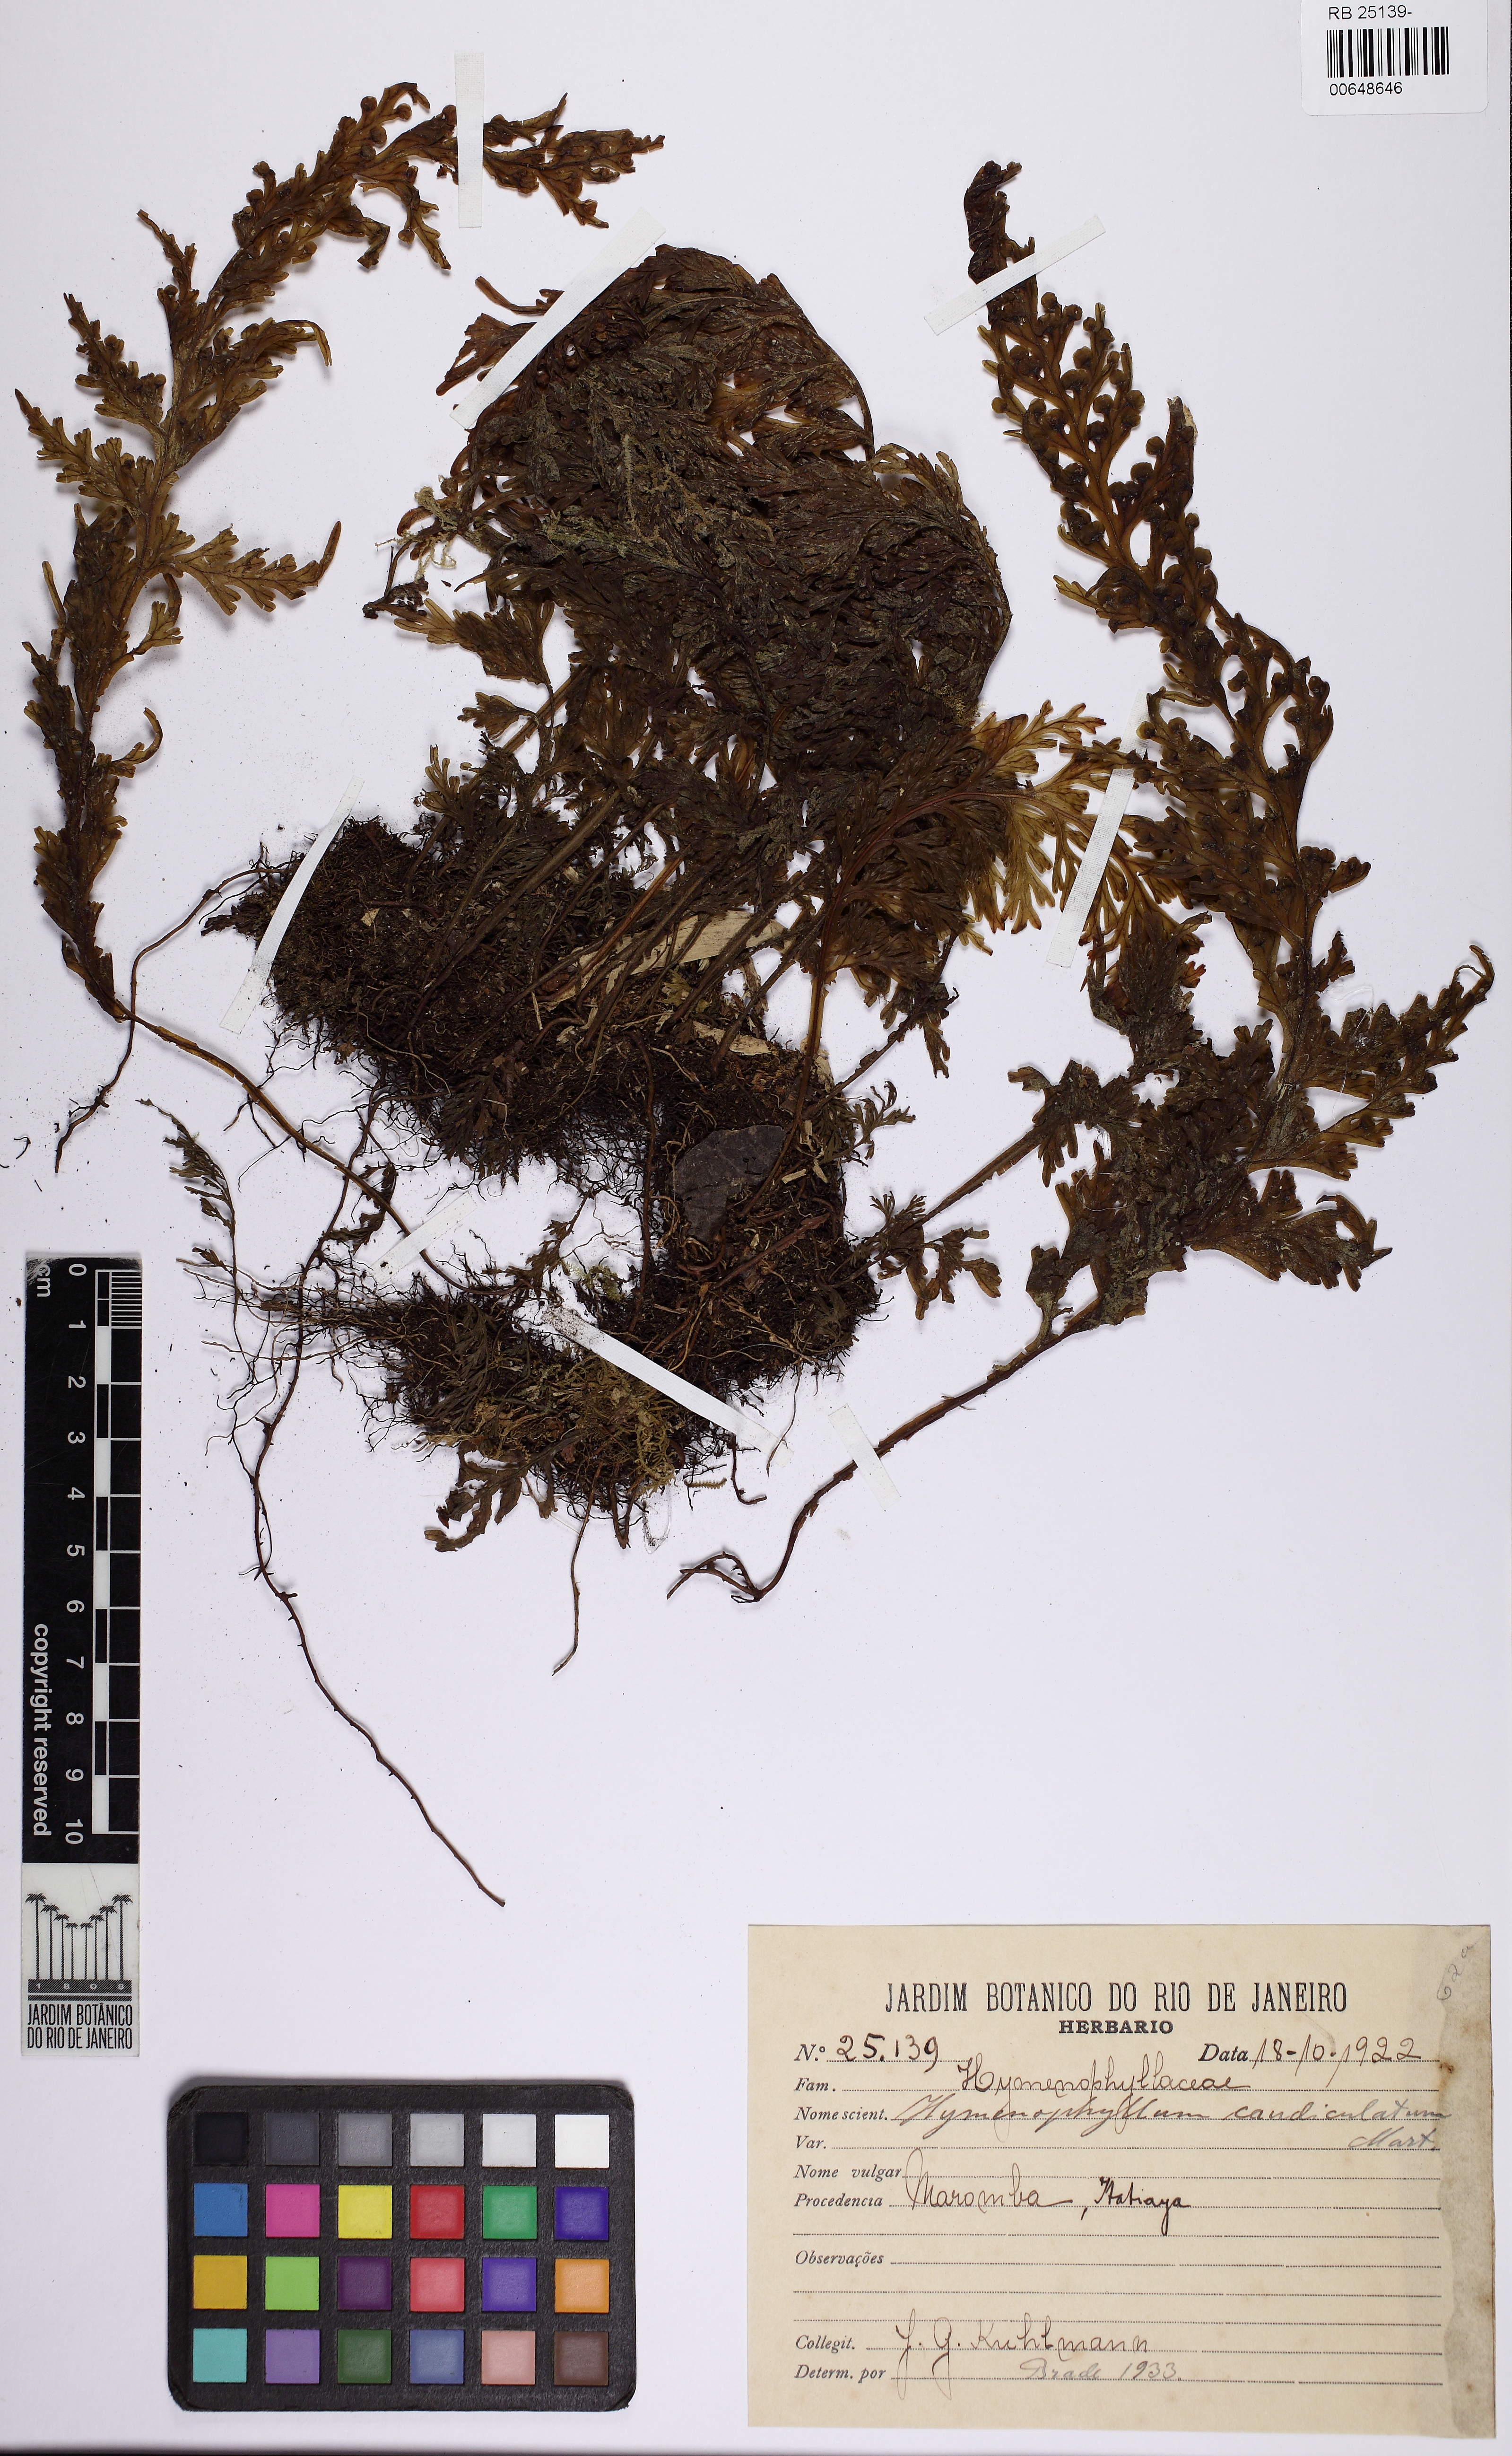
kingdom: Plantae
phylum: Tracheophyta
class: Polypodiopsida
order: Hymenophyllales
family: Hymenophyllaceae
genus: Hymenophyllum
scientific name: Hymenophyllum caudiculatum
